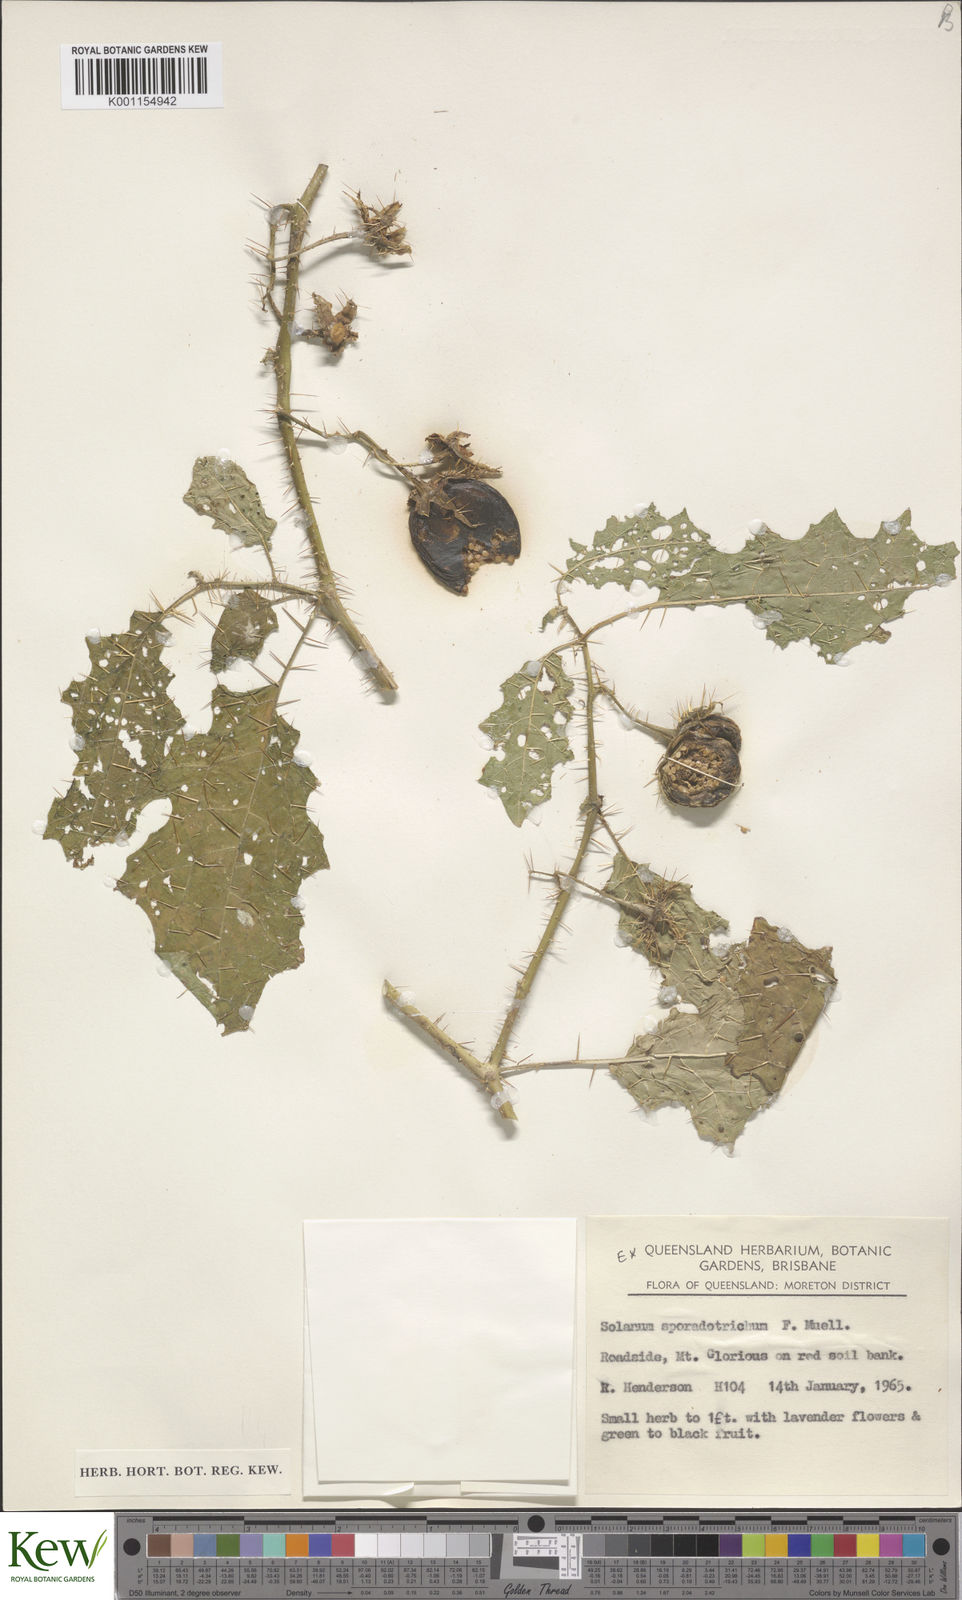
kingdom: Plantae
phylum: Tracheophyta
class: Magnoliopsida
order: Solanales
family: Solanaceae
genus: Solanum
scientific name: Solanum sporadotrichum
